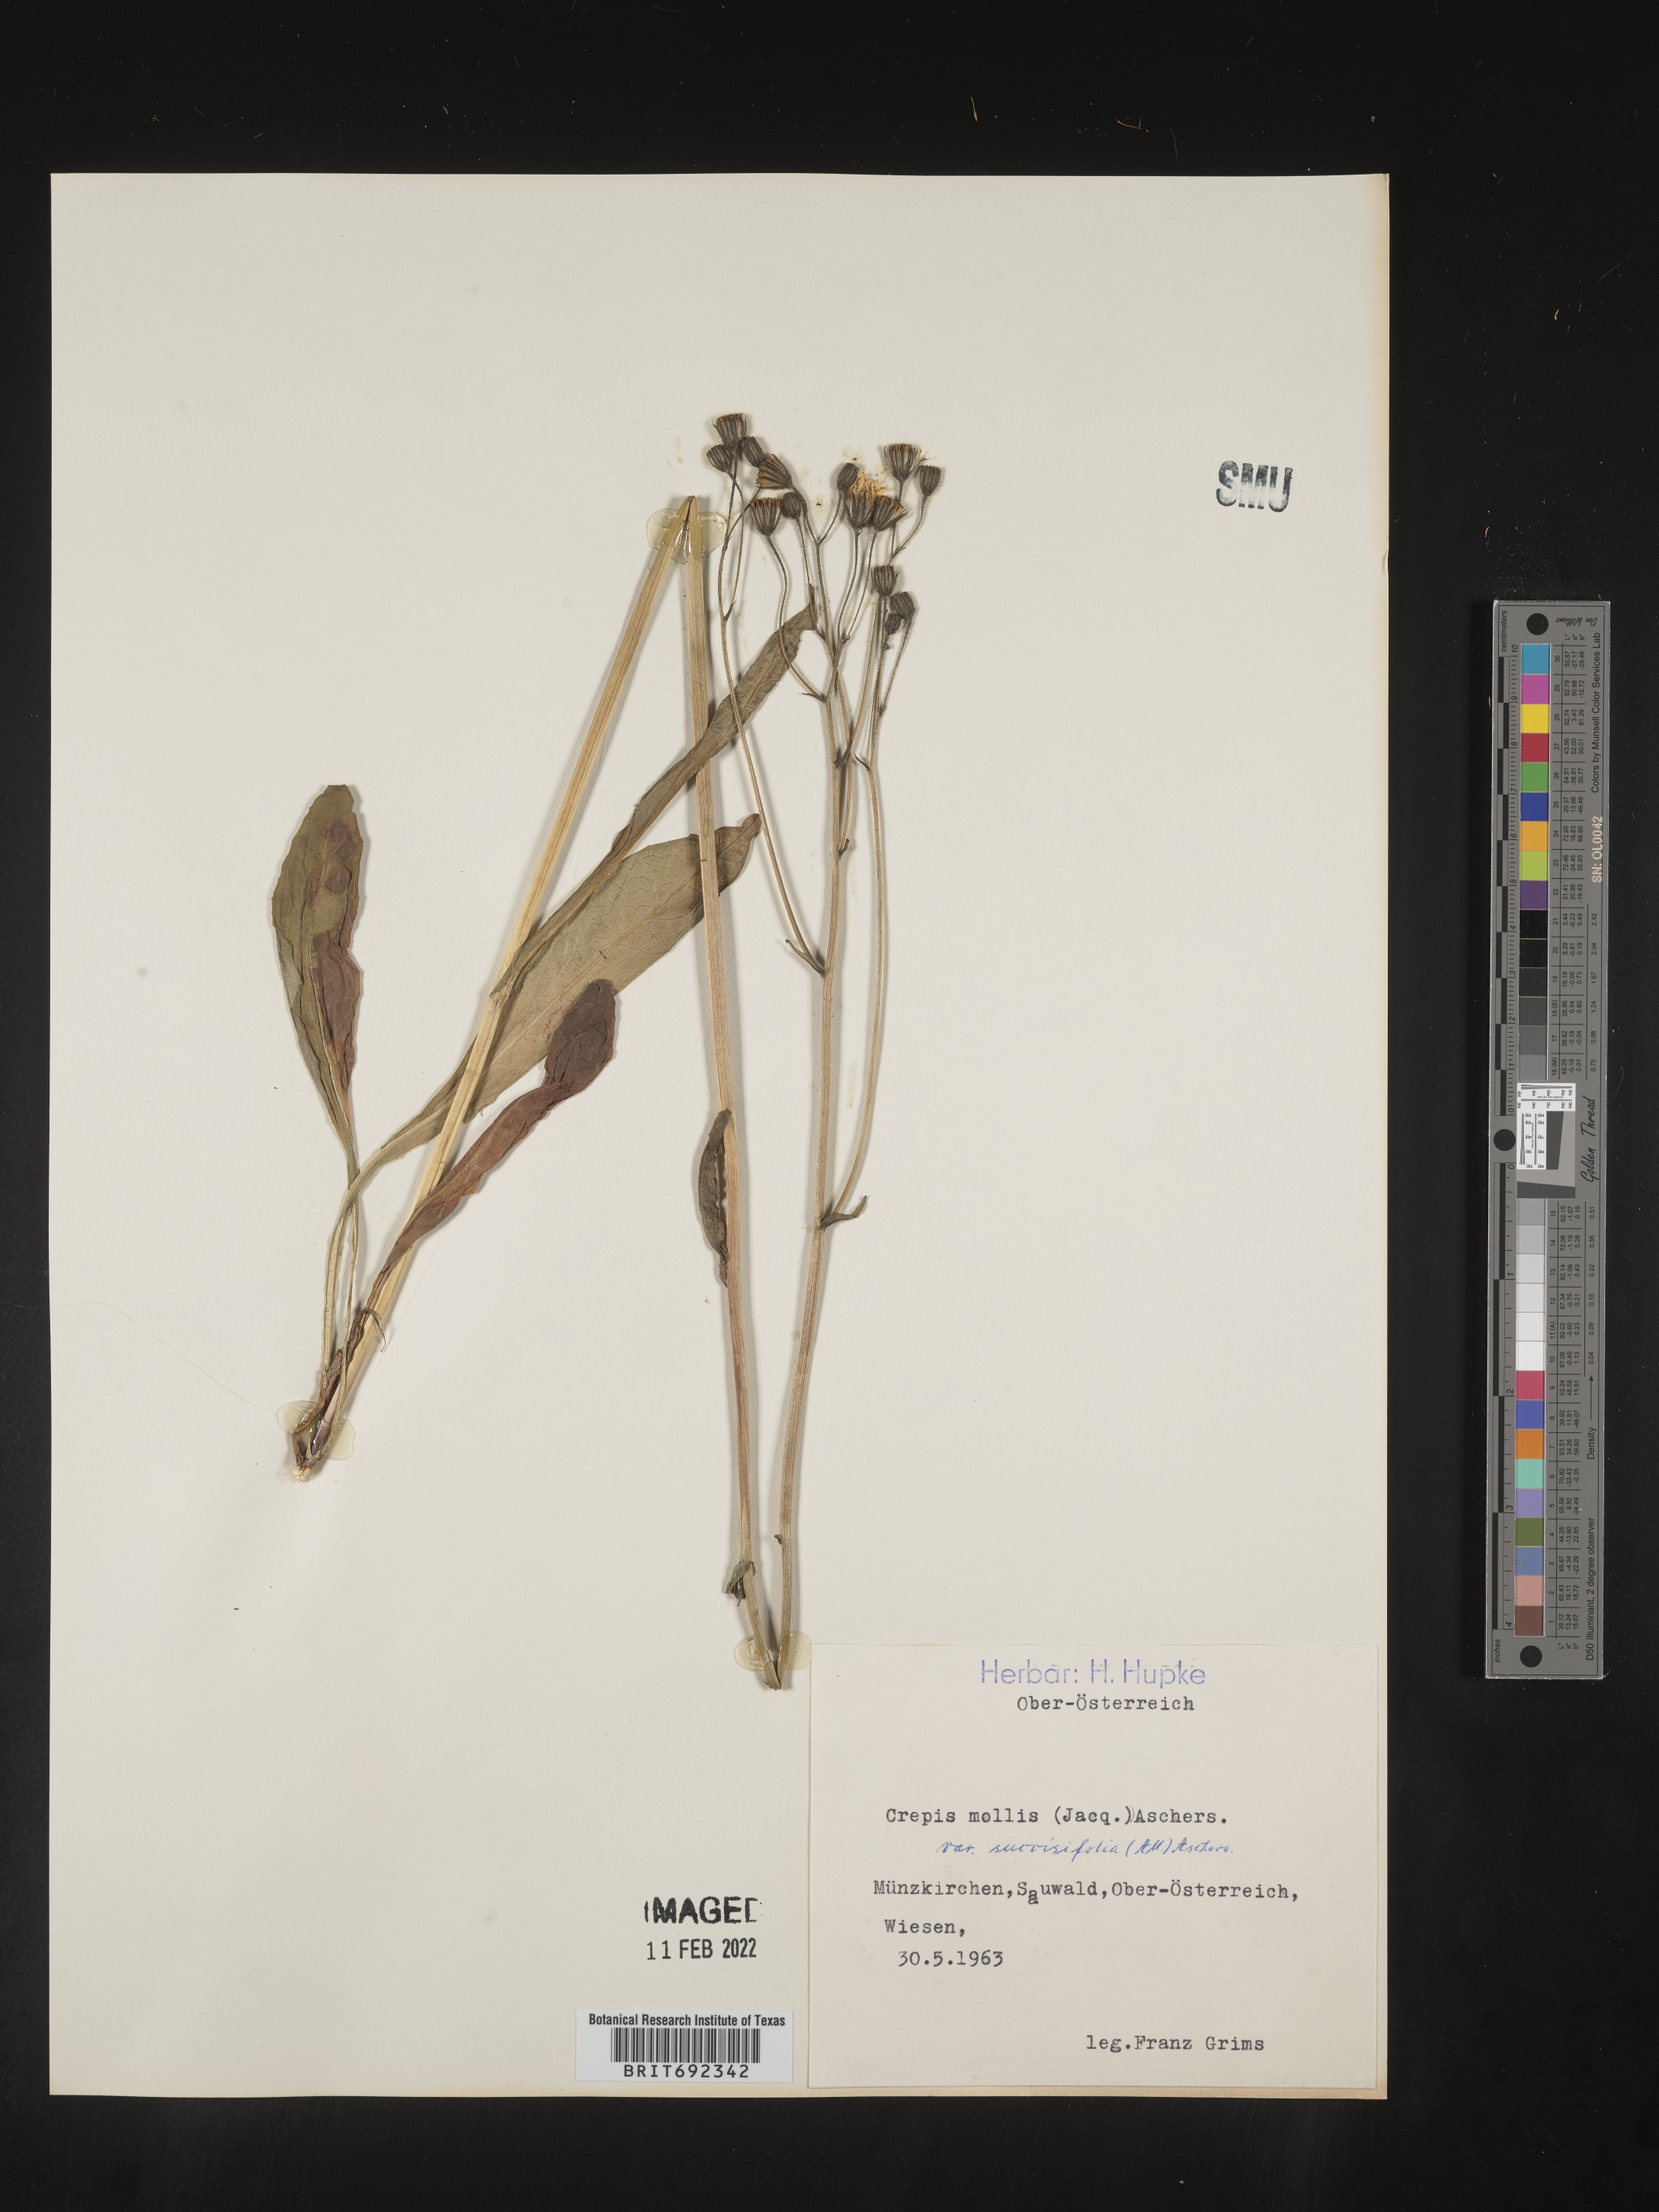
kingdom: Plantae
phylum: Tracheophyta
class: Magnoliopsida
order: Asterales
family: Asteraceae
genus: Crepis
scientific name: Crepis
